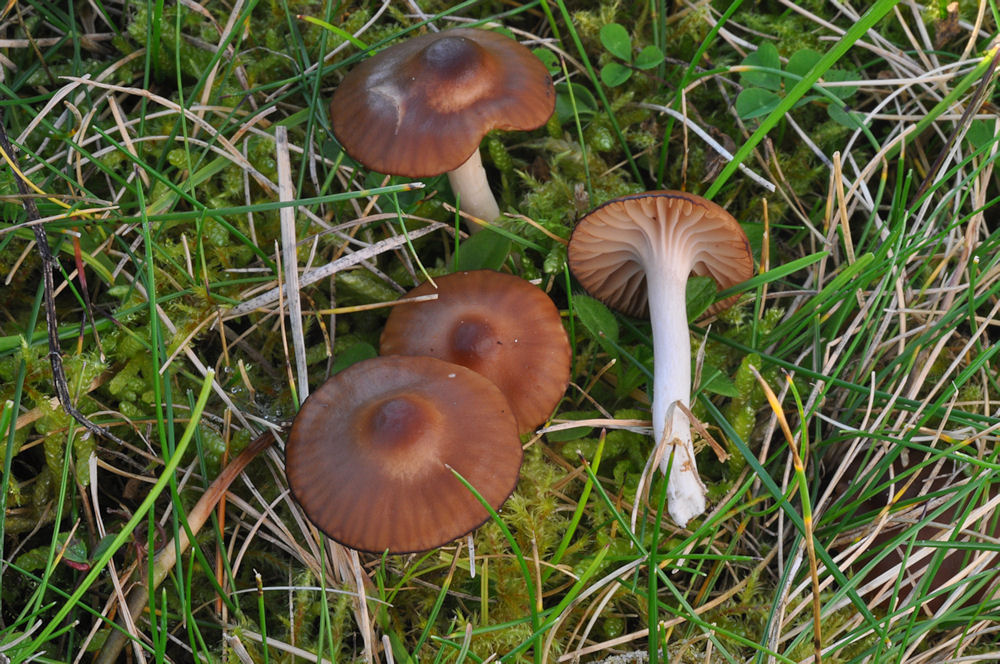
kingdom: Fungi
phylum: Basidiomycota
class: Agaricomycetes
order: Agaricales
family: Hygrophoraceae
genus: Cuphophyllus
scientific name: Cuphophyllus colemannianus
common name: rødbrun vokshat
